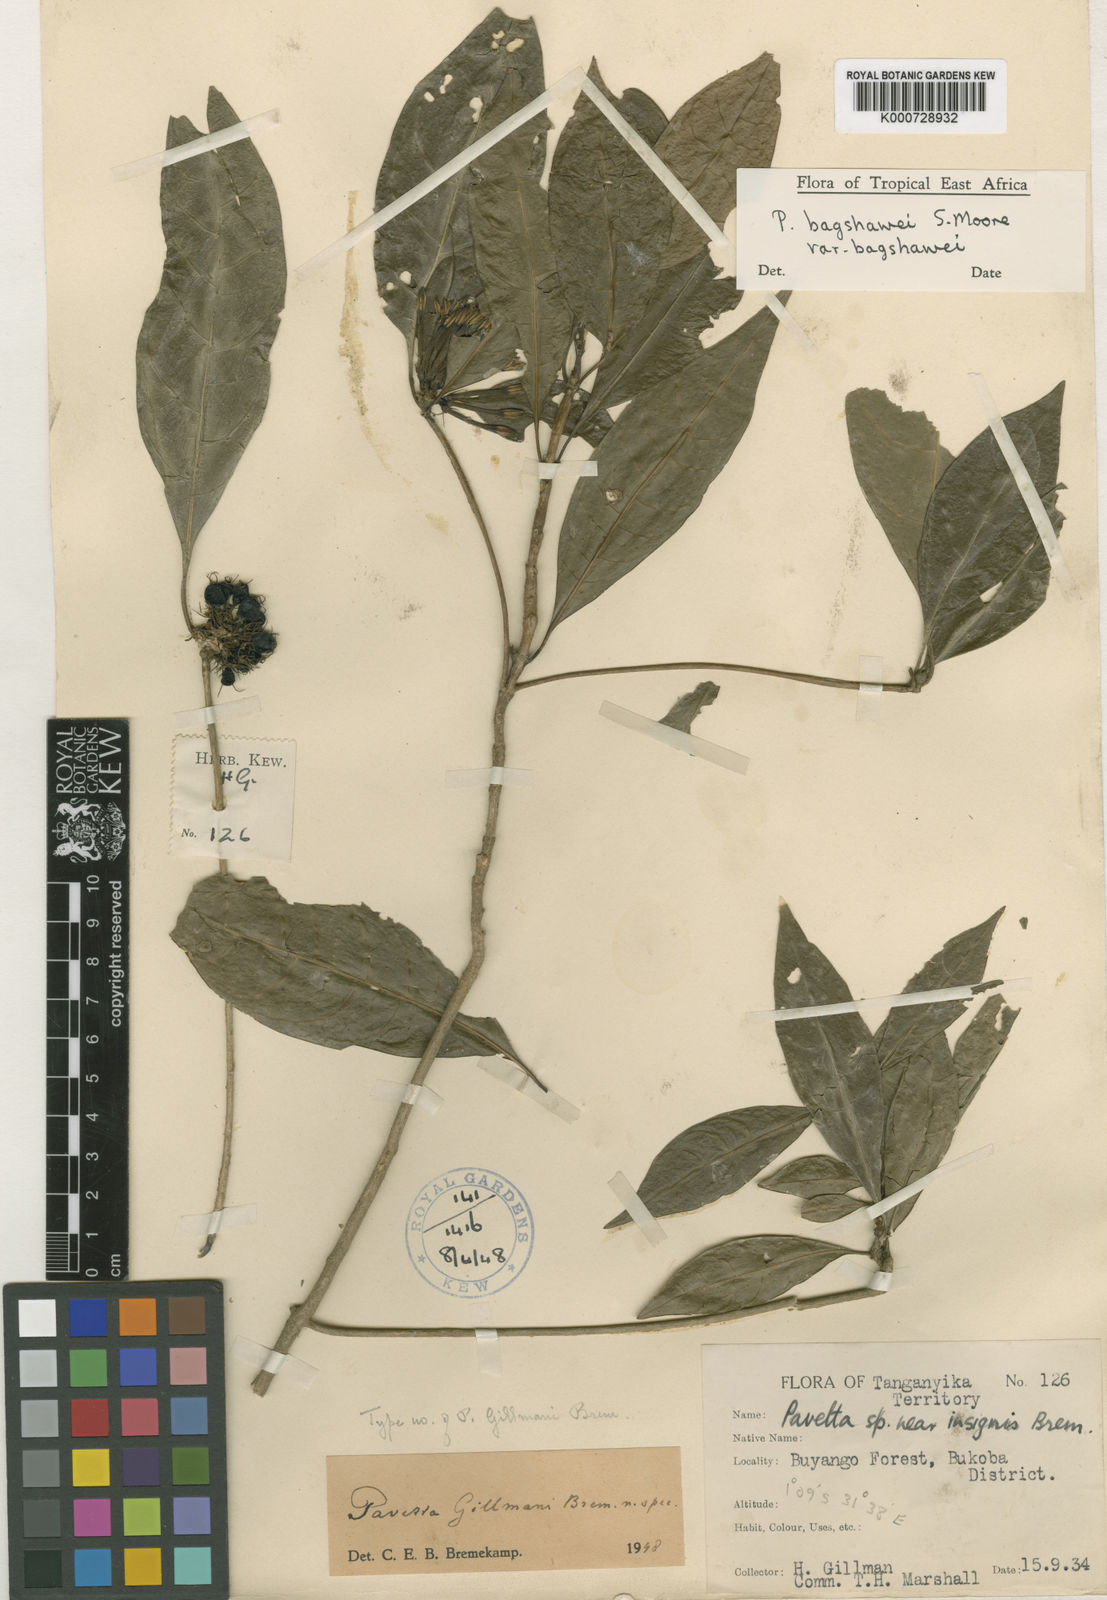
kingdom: Plantae
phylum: Tracheophyta
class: Magnoliopsida
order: Gentianales
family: Rubiaceae
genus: Pavetta
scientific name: Pavetta bagshawei
